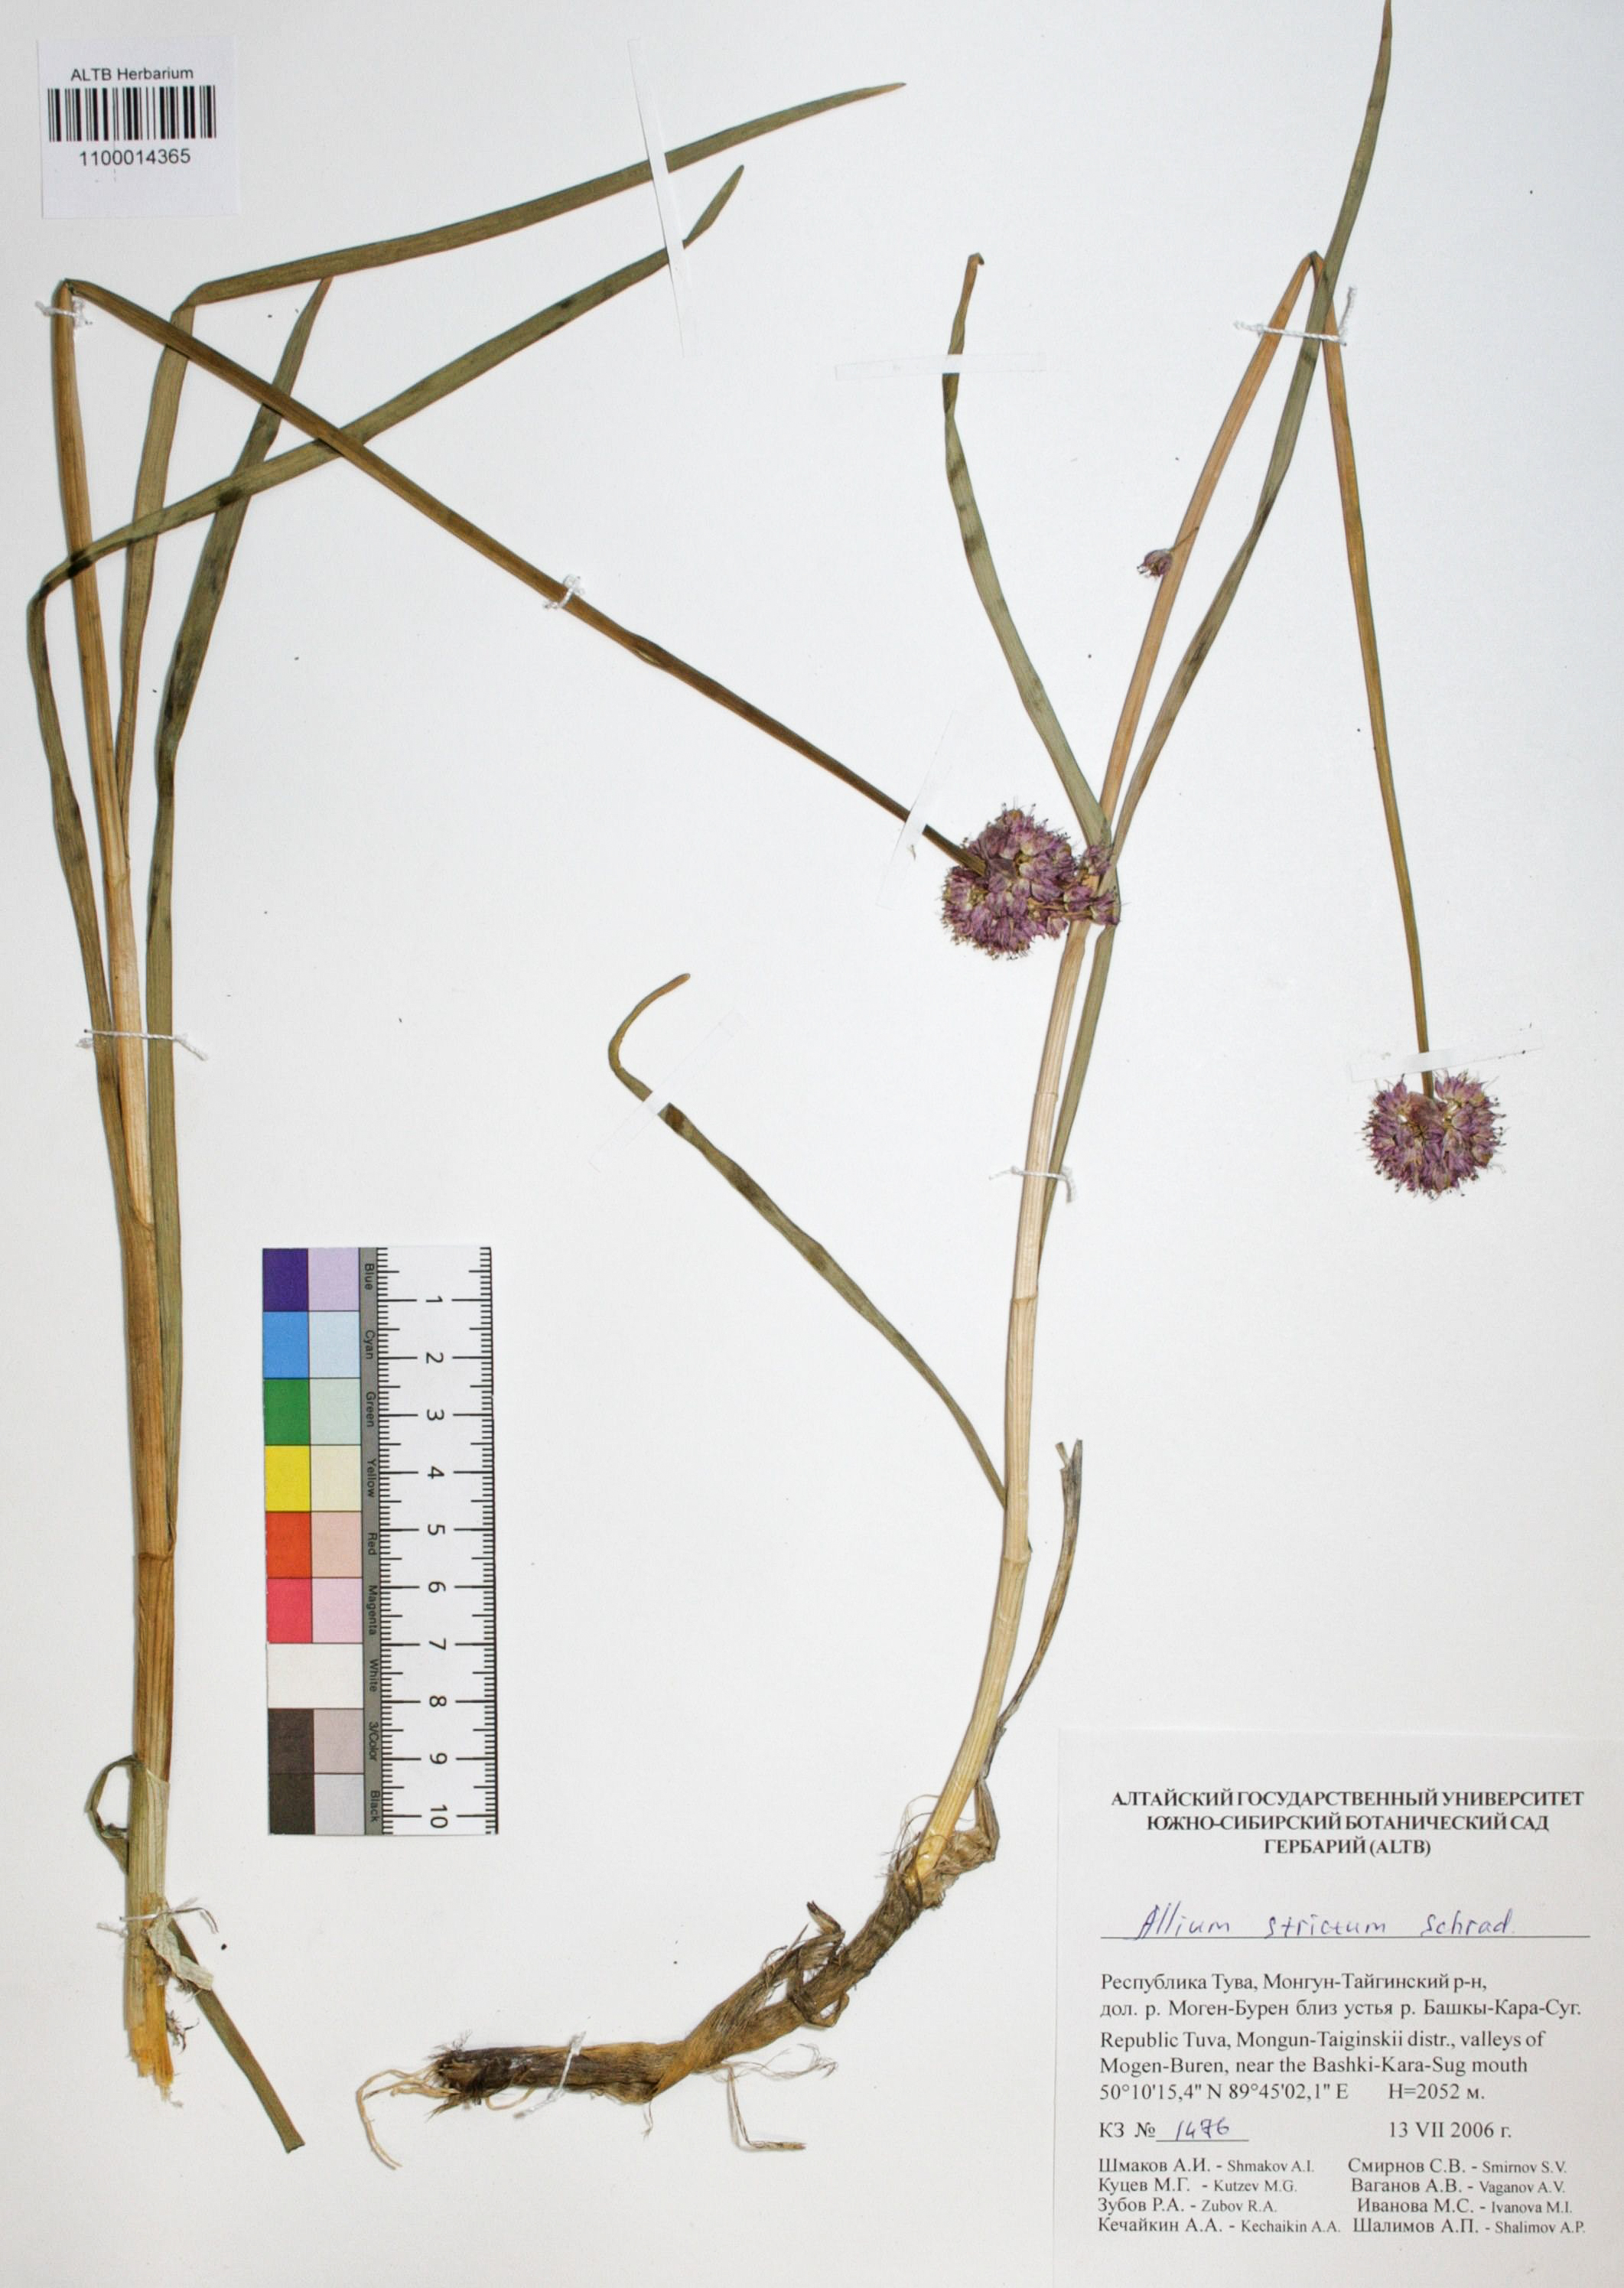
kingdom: Plantae
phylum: Tracheophyta
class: Liliopsida
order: Asparagales
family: Amaryllidaceae
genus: Allium
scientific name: Allium strictum
